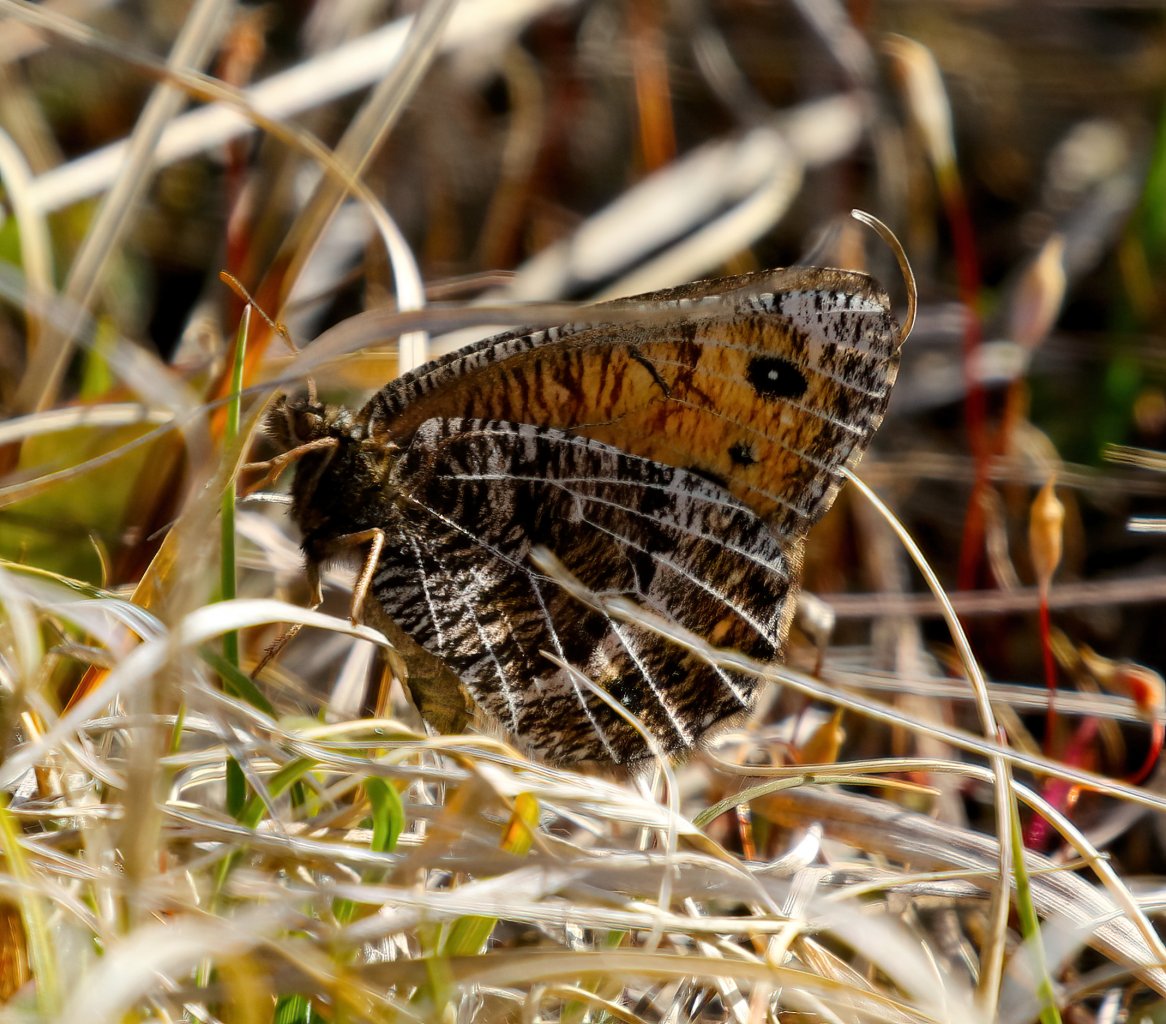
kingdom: Animalia
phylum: Arthropoda
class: Insecta
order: Lepidoptera
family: Nymphalidae
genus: Oeneis
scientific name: Oeneis chryxus
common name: Chryxus Arctic
